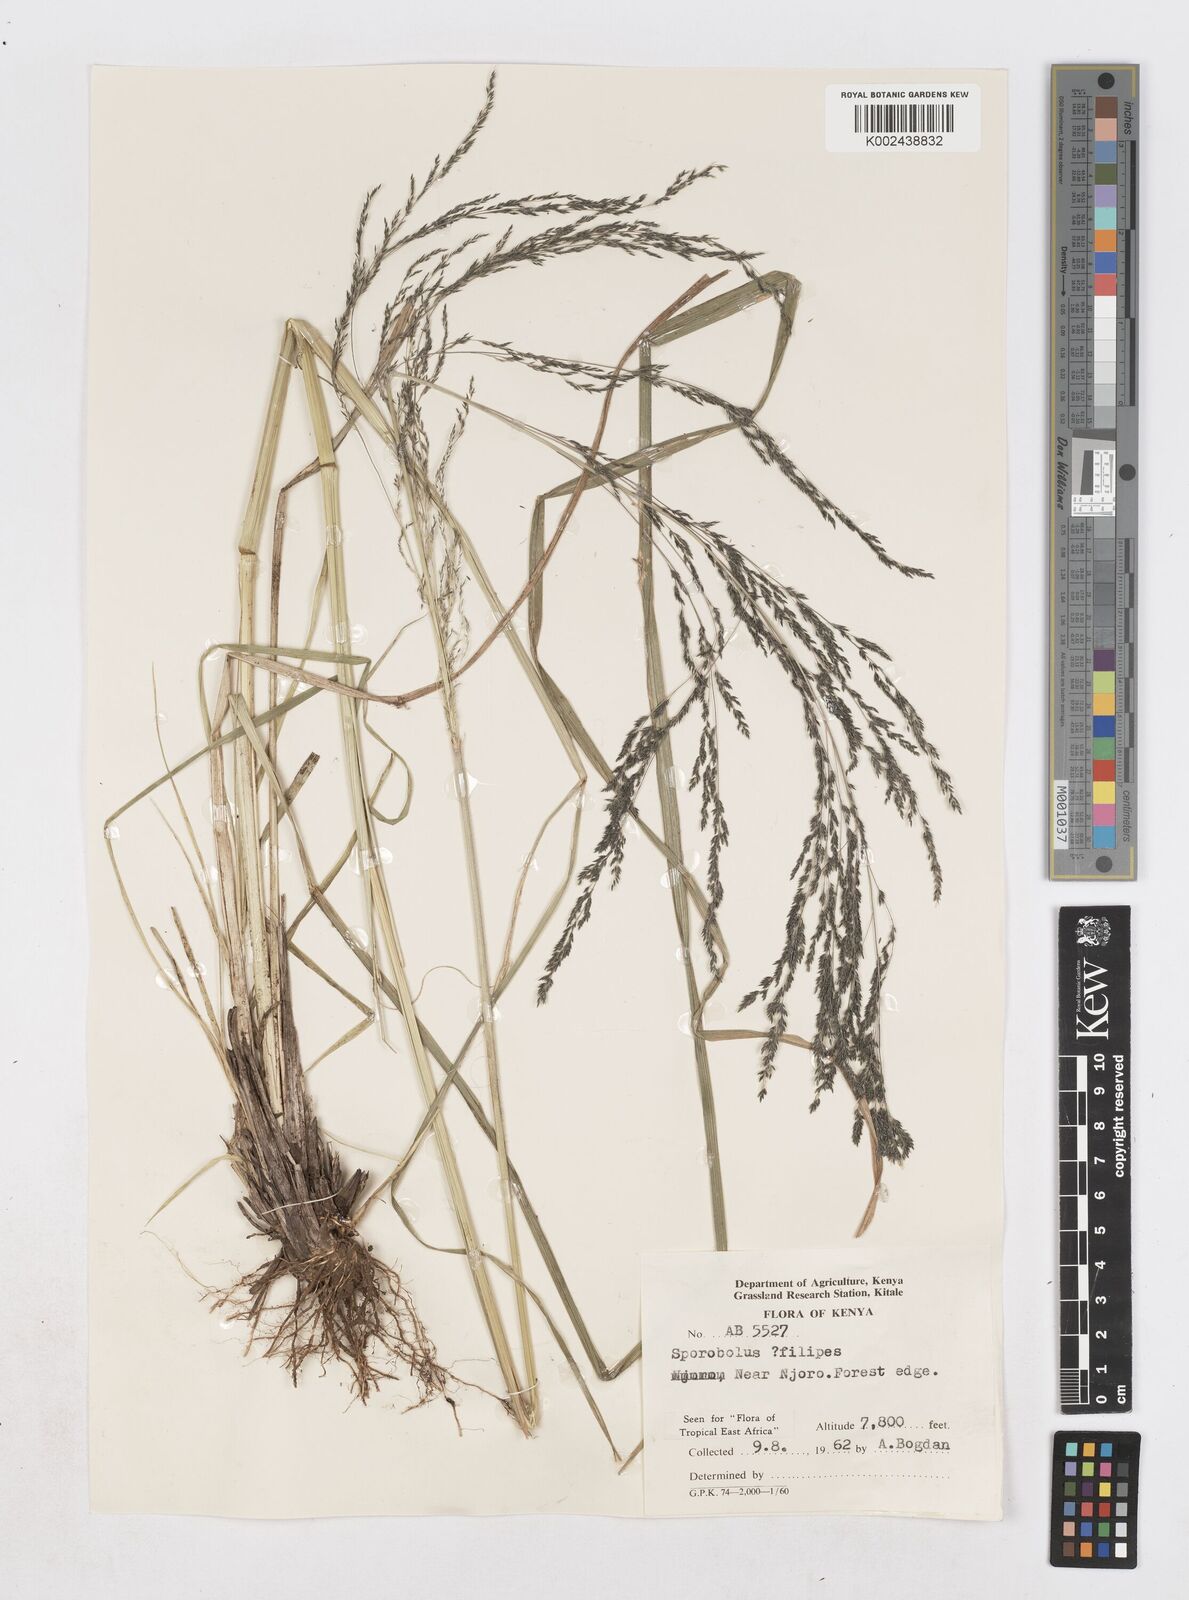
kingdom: Plantae
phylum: Tracheophyta
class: Liliopsida
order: Poales
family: Poaceae
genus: Sporobolus
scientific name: Sporobolus agrostoides
